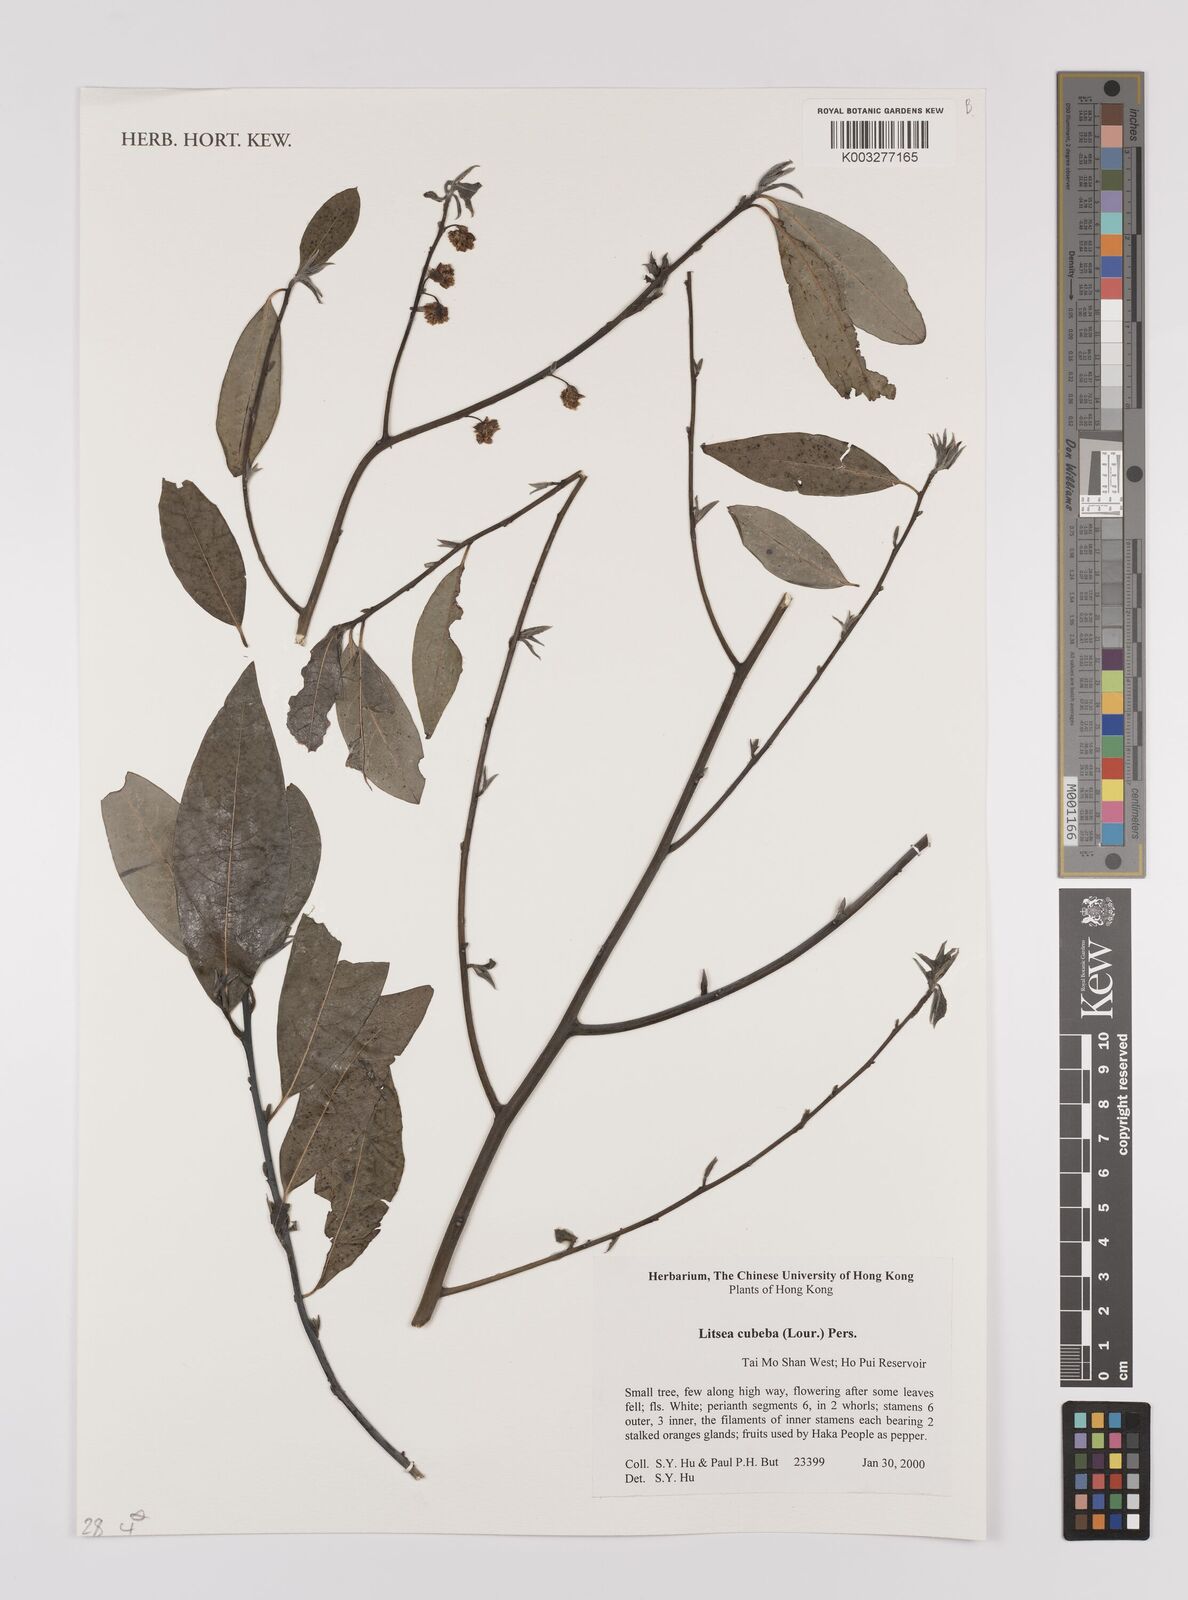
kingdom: Plantae
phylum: Tracheophyta
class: Magnoliopsida
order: Laurales
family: Lauraceae
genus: Litsea
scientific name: Litsea cubeba
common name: Mountain-pepper
